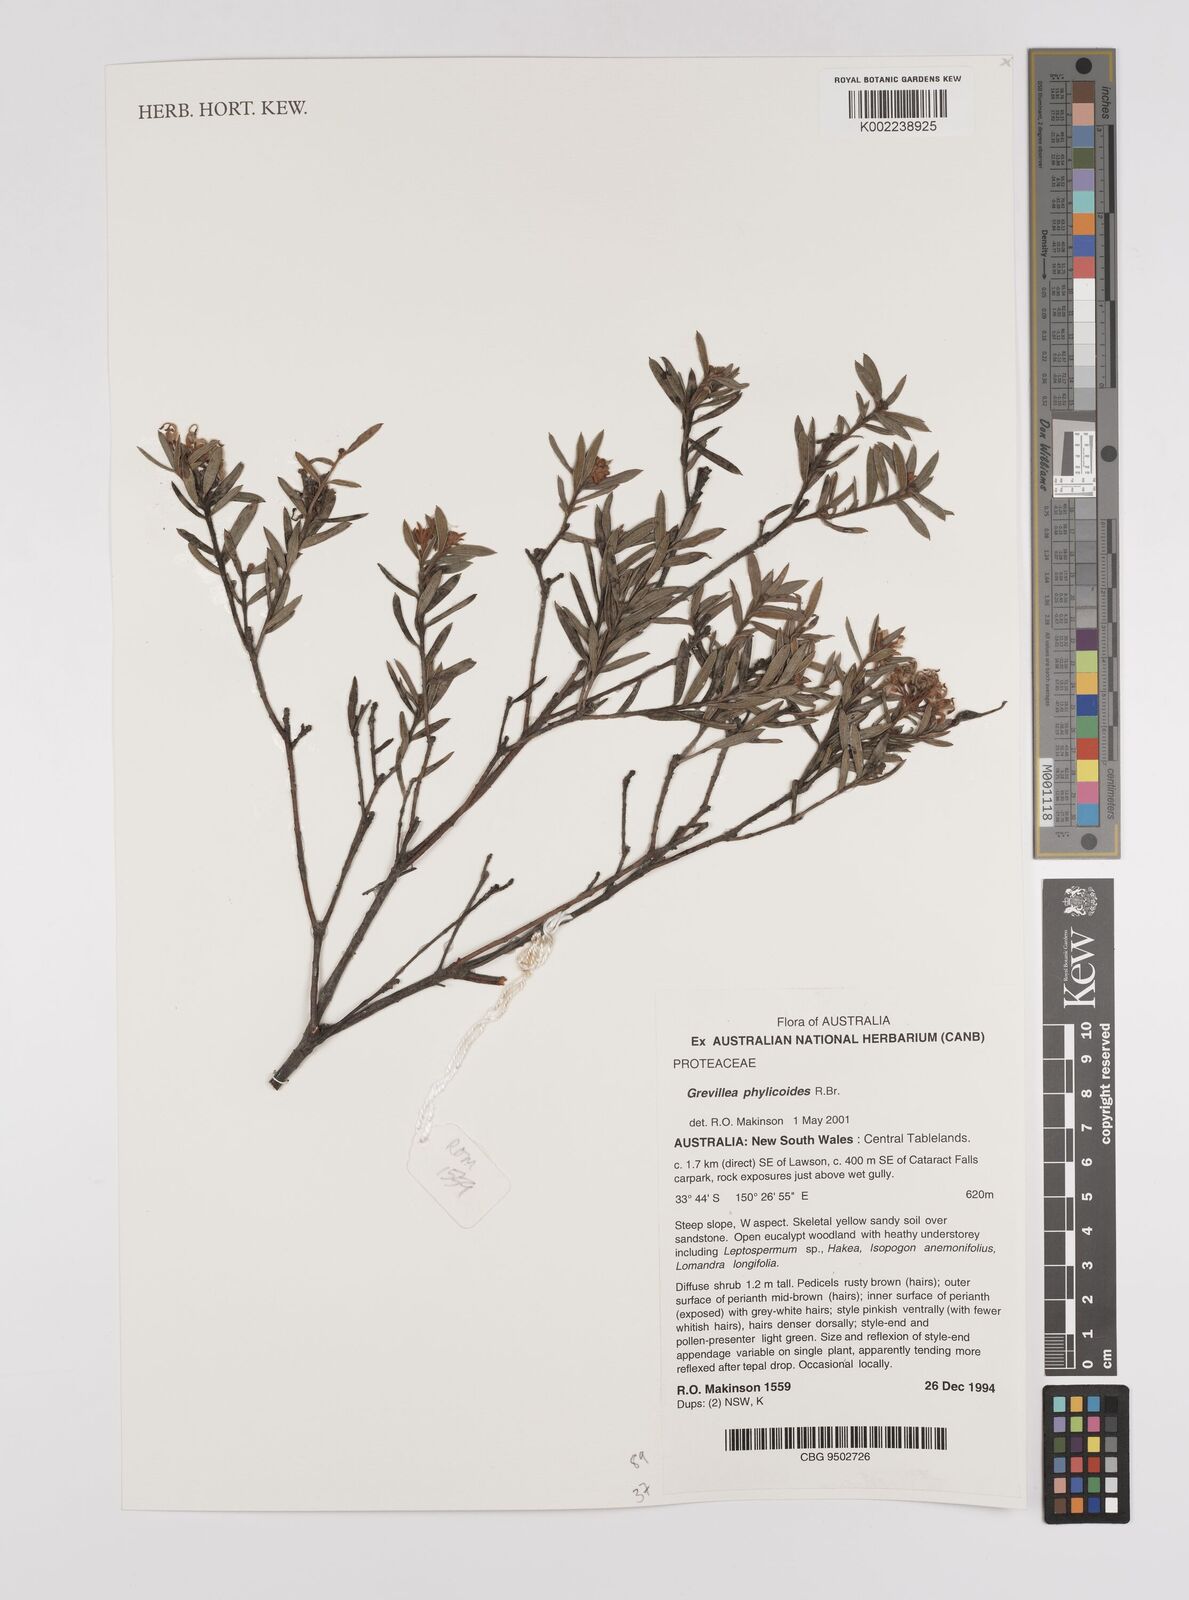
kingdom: Plantae
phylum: Tracheophyta
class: Magnoliopsida
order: Proteales
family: Proteaceae
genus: Grevillea
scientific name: Grevillea phylicoides
